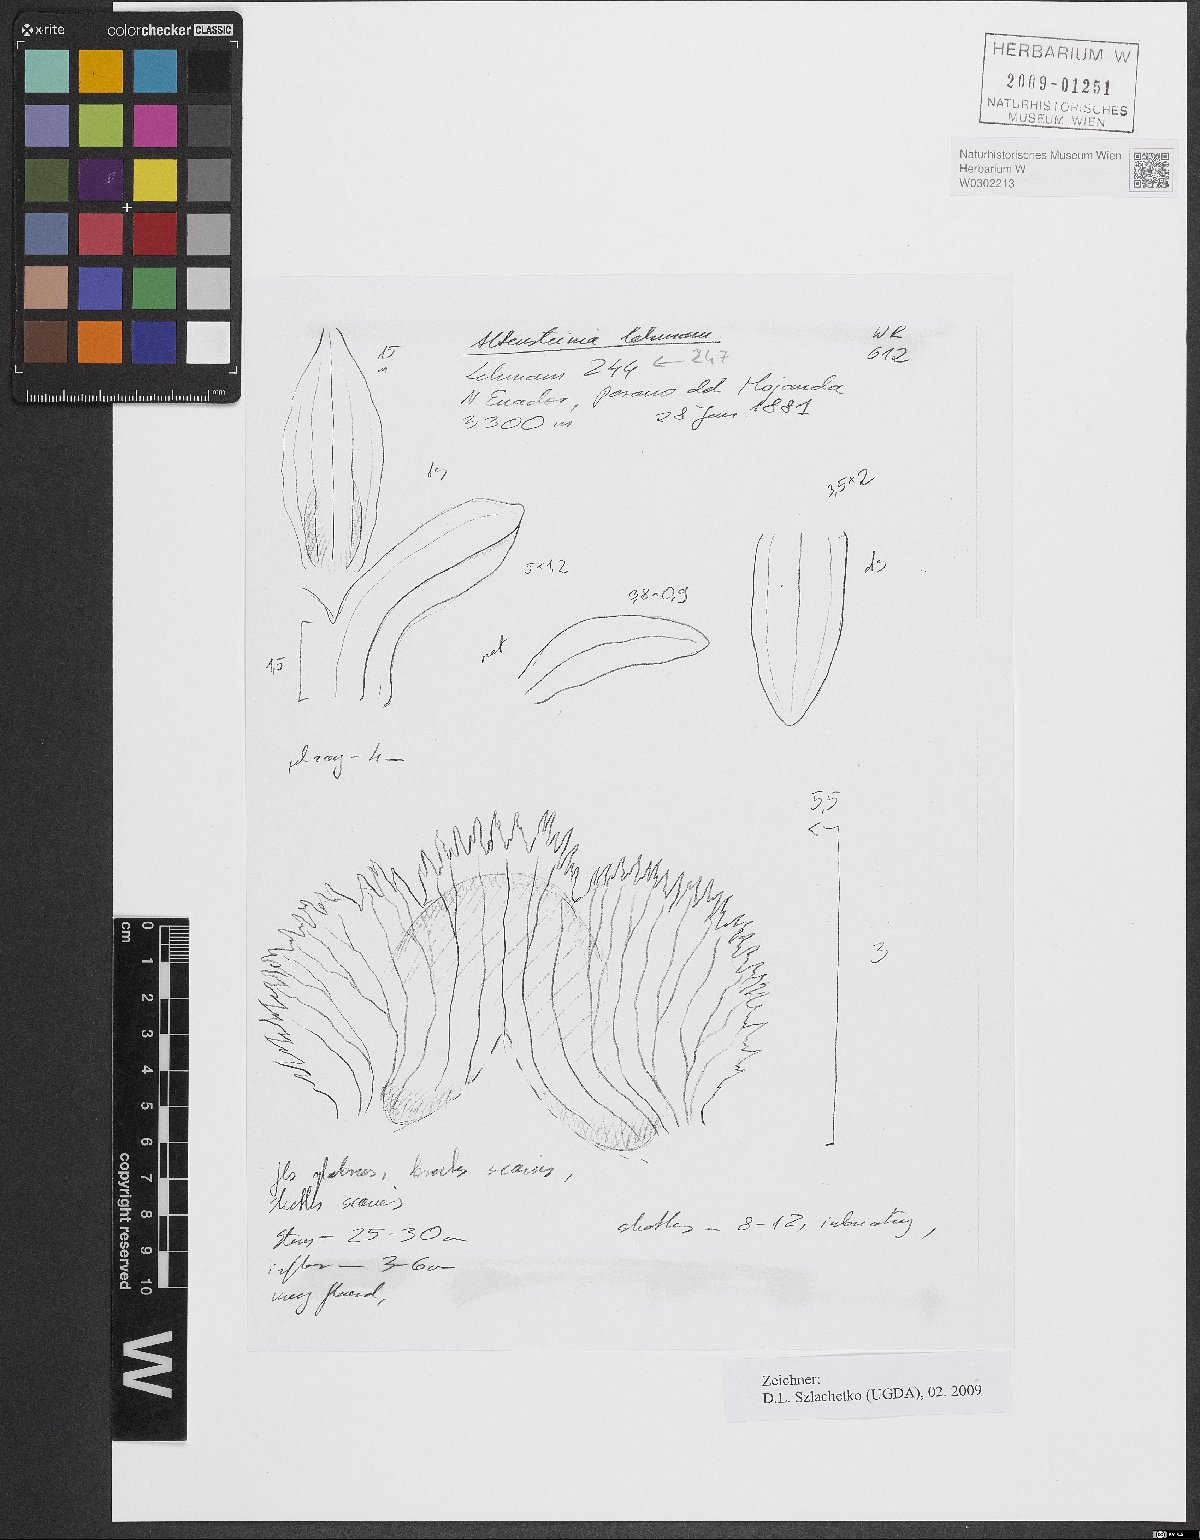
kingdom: Plantae
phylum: Tracheophyta
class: Liliopsida
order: Asparagales
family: Orchidaceae
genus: Aa
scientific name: Aa leucantha
